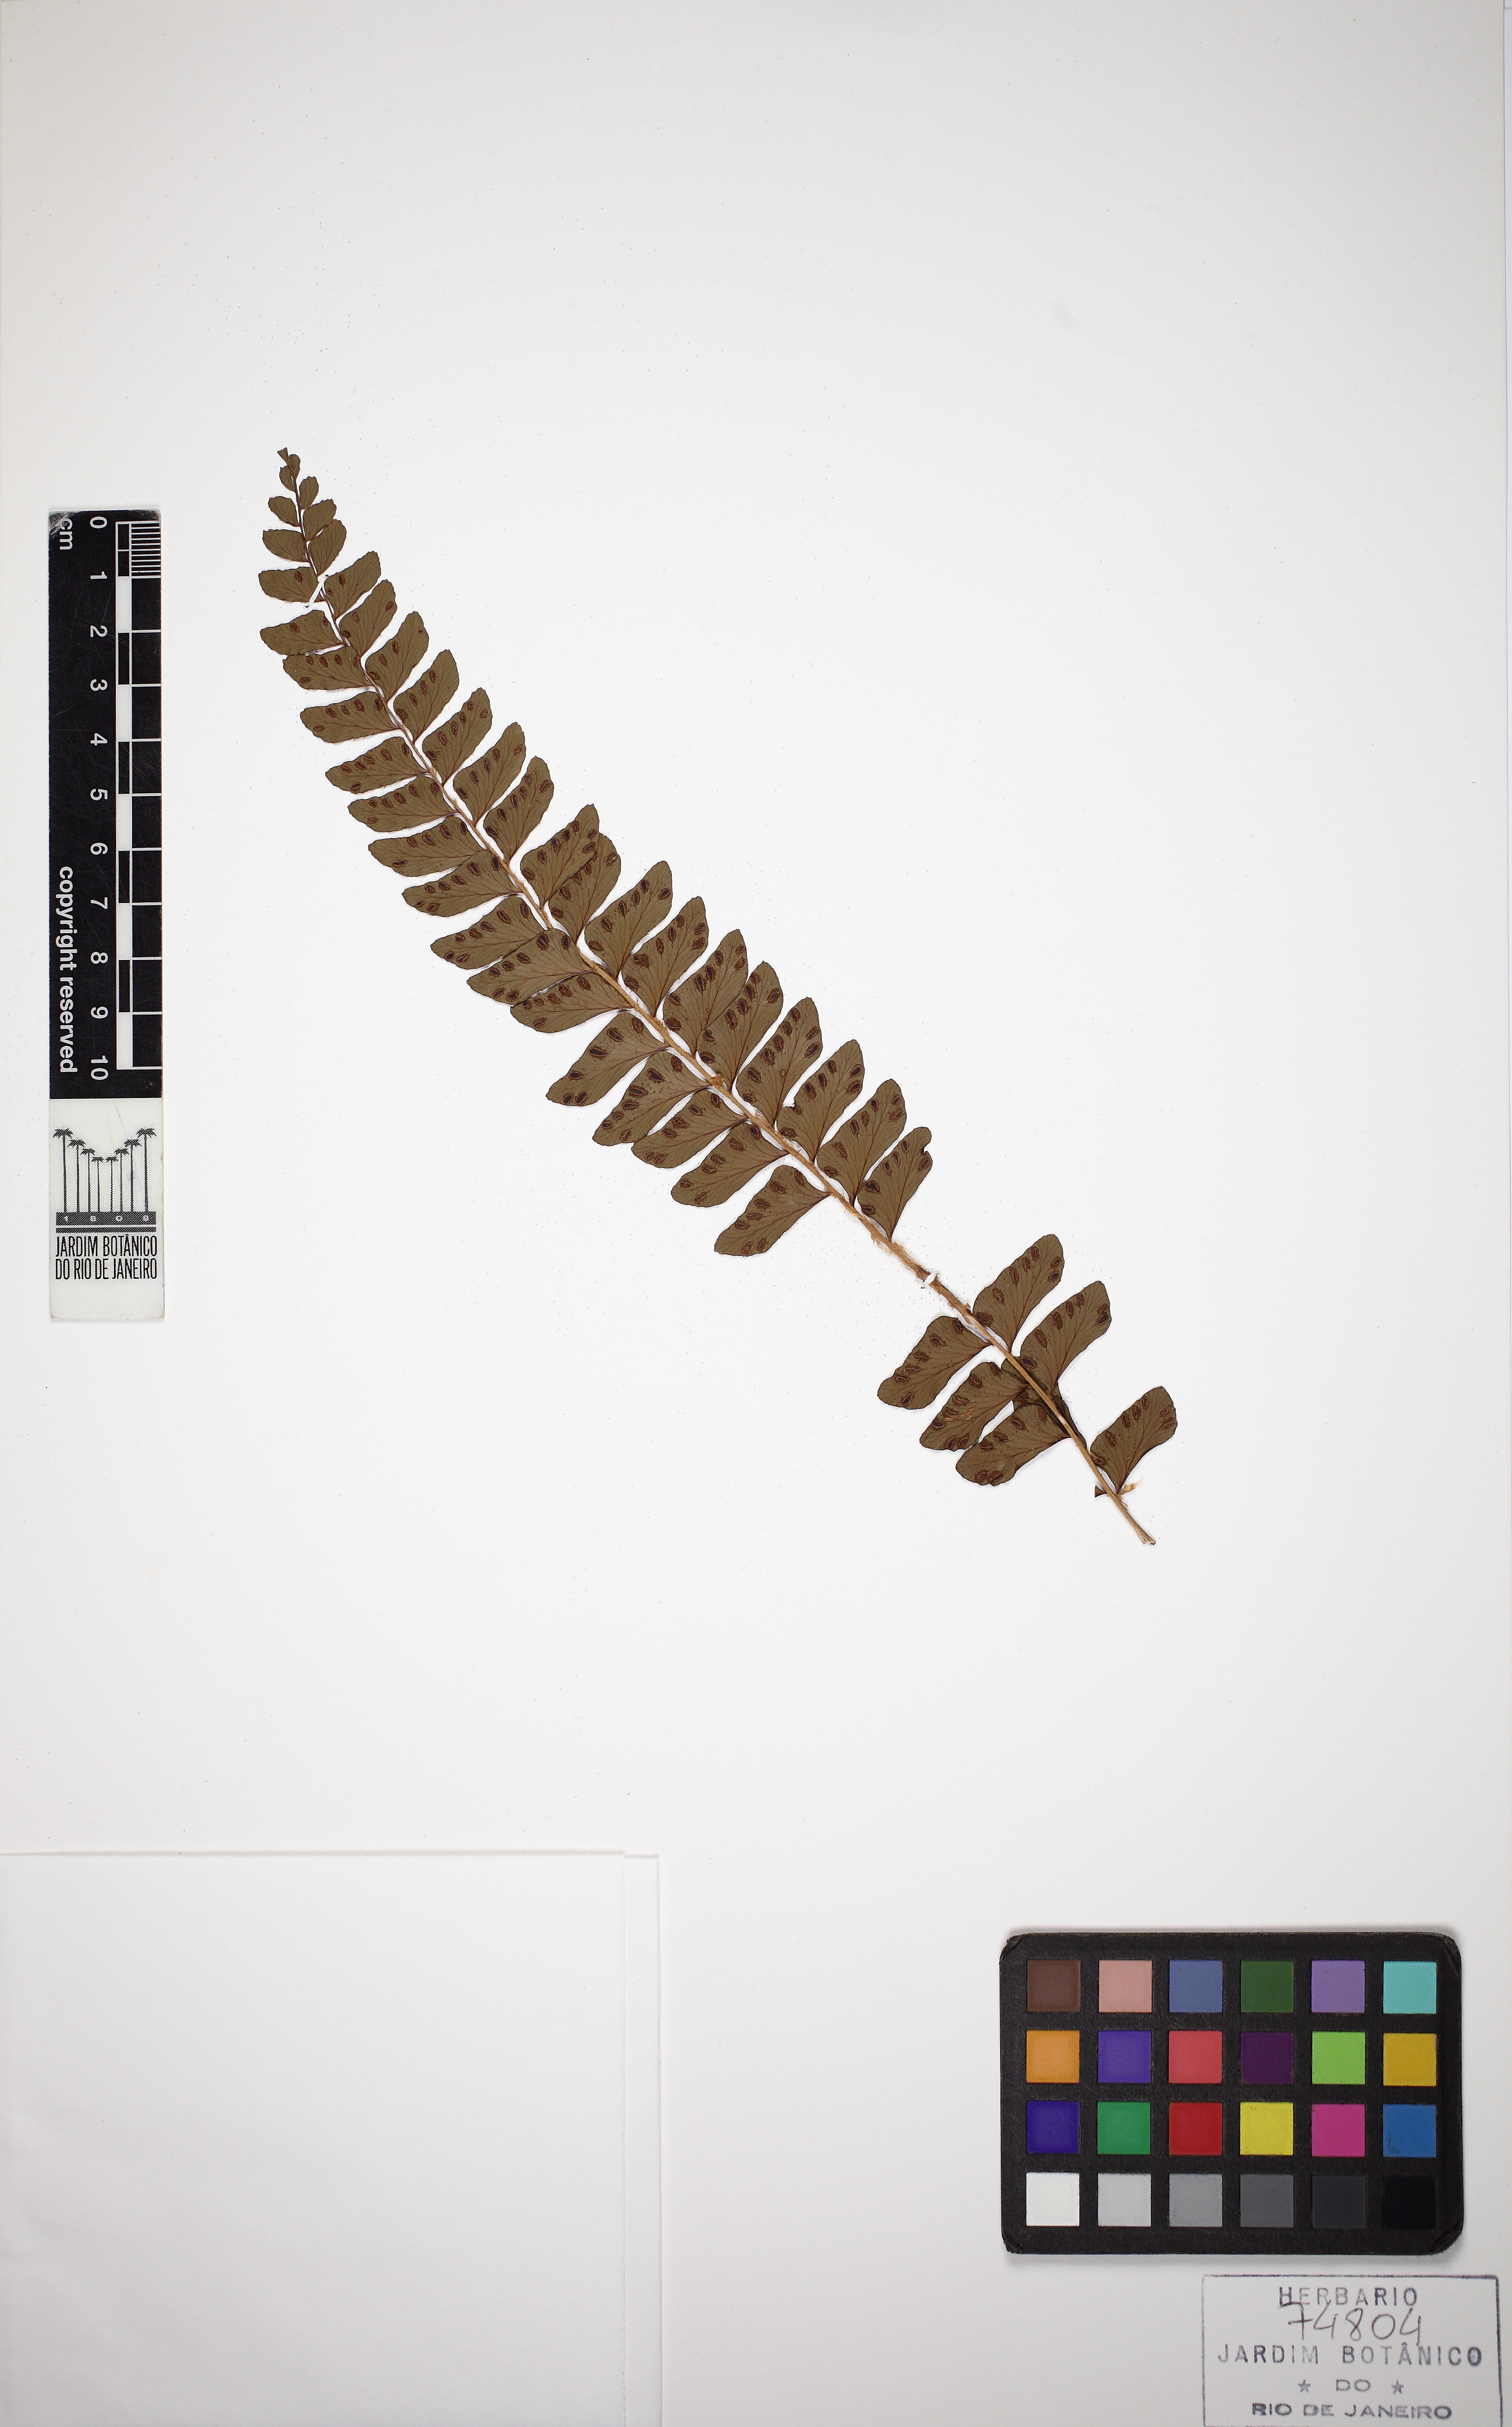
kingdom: Plantae
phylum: Tracheophyta
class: Polypodiopsida
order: Polypodiales
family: Didymochlaenaceae
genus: Didymochlaena
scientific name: Didymochlaena truncatula
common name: Mahogany fern
